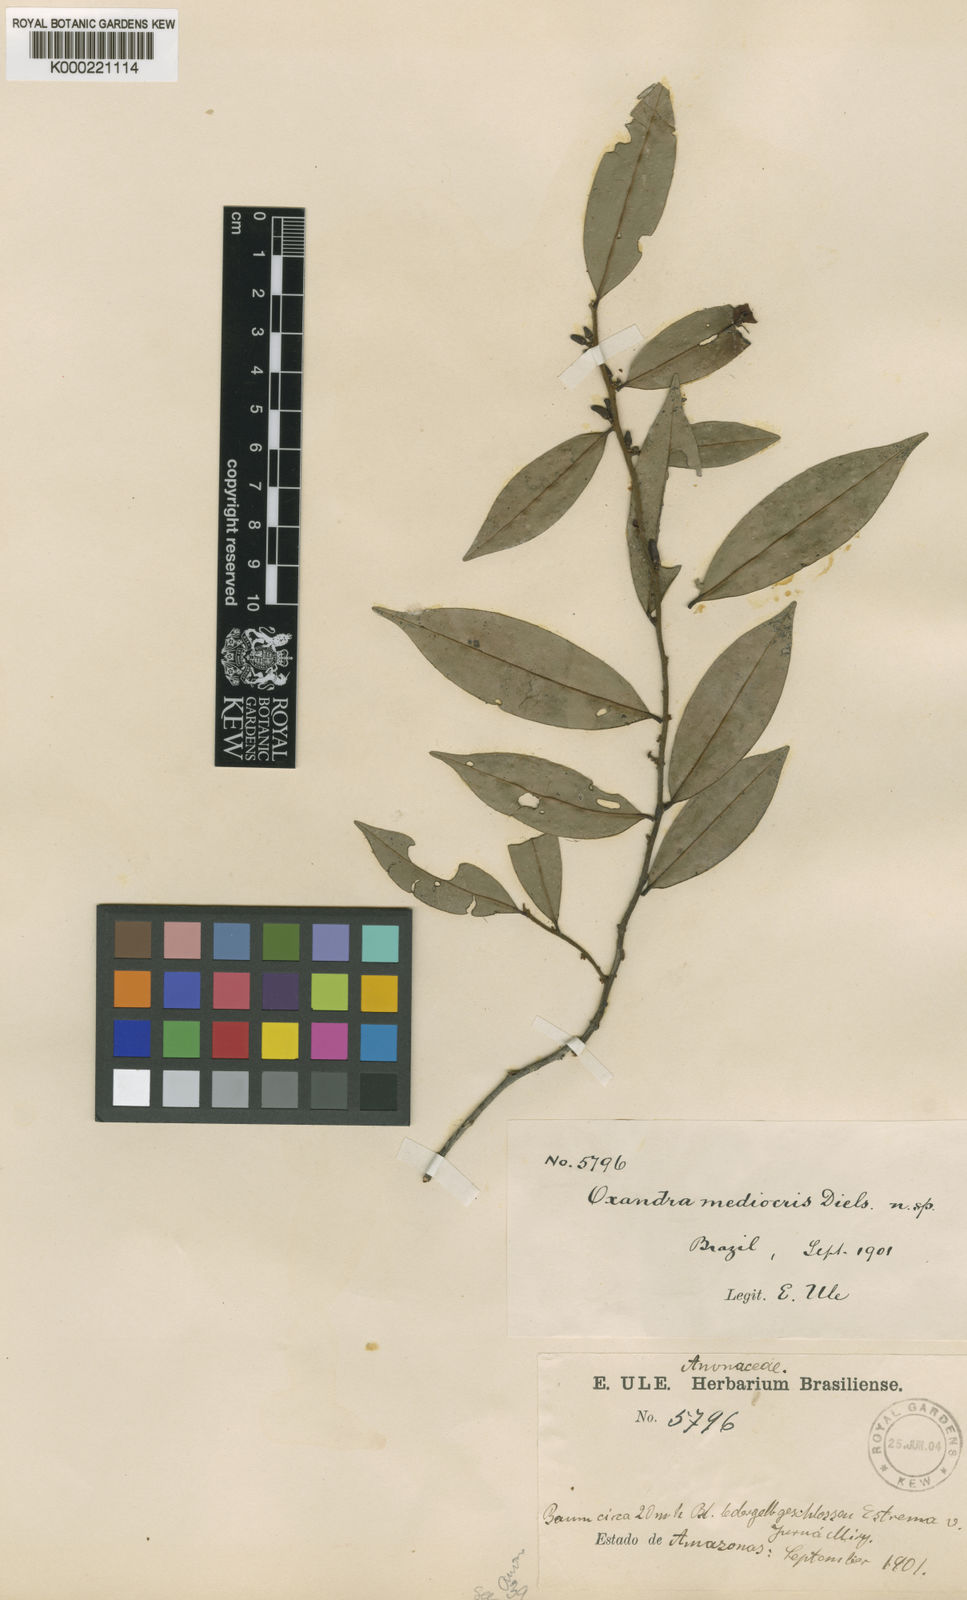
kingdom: Plantae
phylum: Tracheophyta
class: Magnoliopsida
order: Magnoliales
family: Annonaceae
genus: Oxandra
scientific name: Oxandra mediocris
